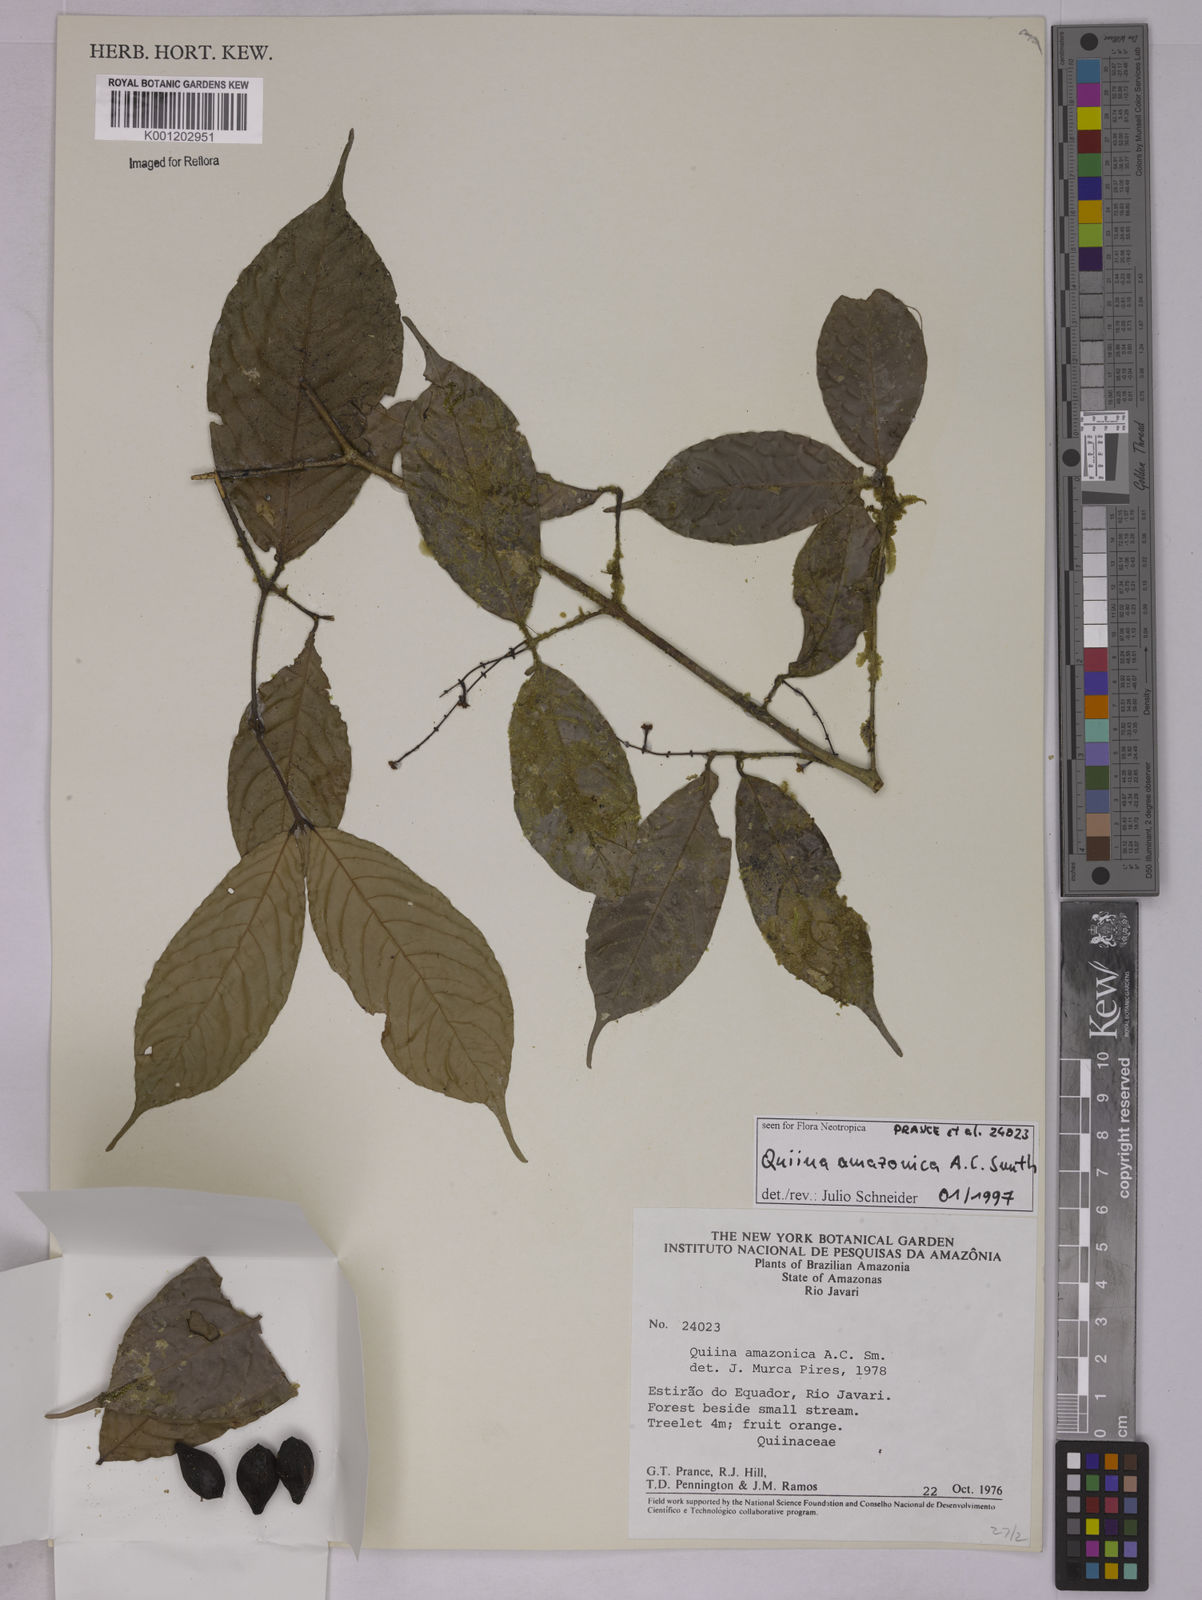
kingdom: Plantae
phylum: Tracheophyta
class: Magnoliopsida
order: Malpighiales
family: Quiinaceae
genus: Quiina
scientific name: Quiina amazonica
